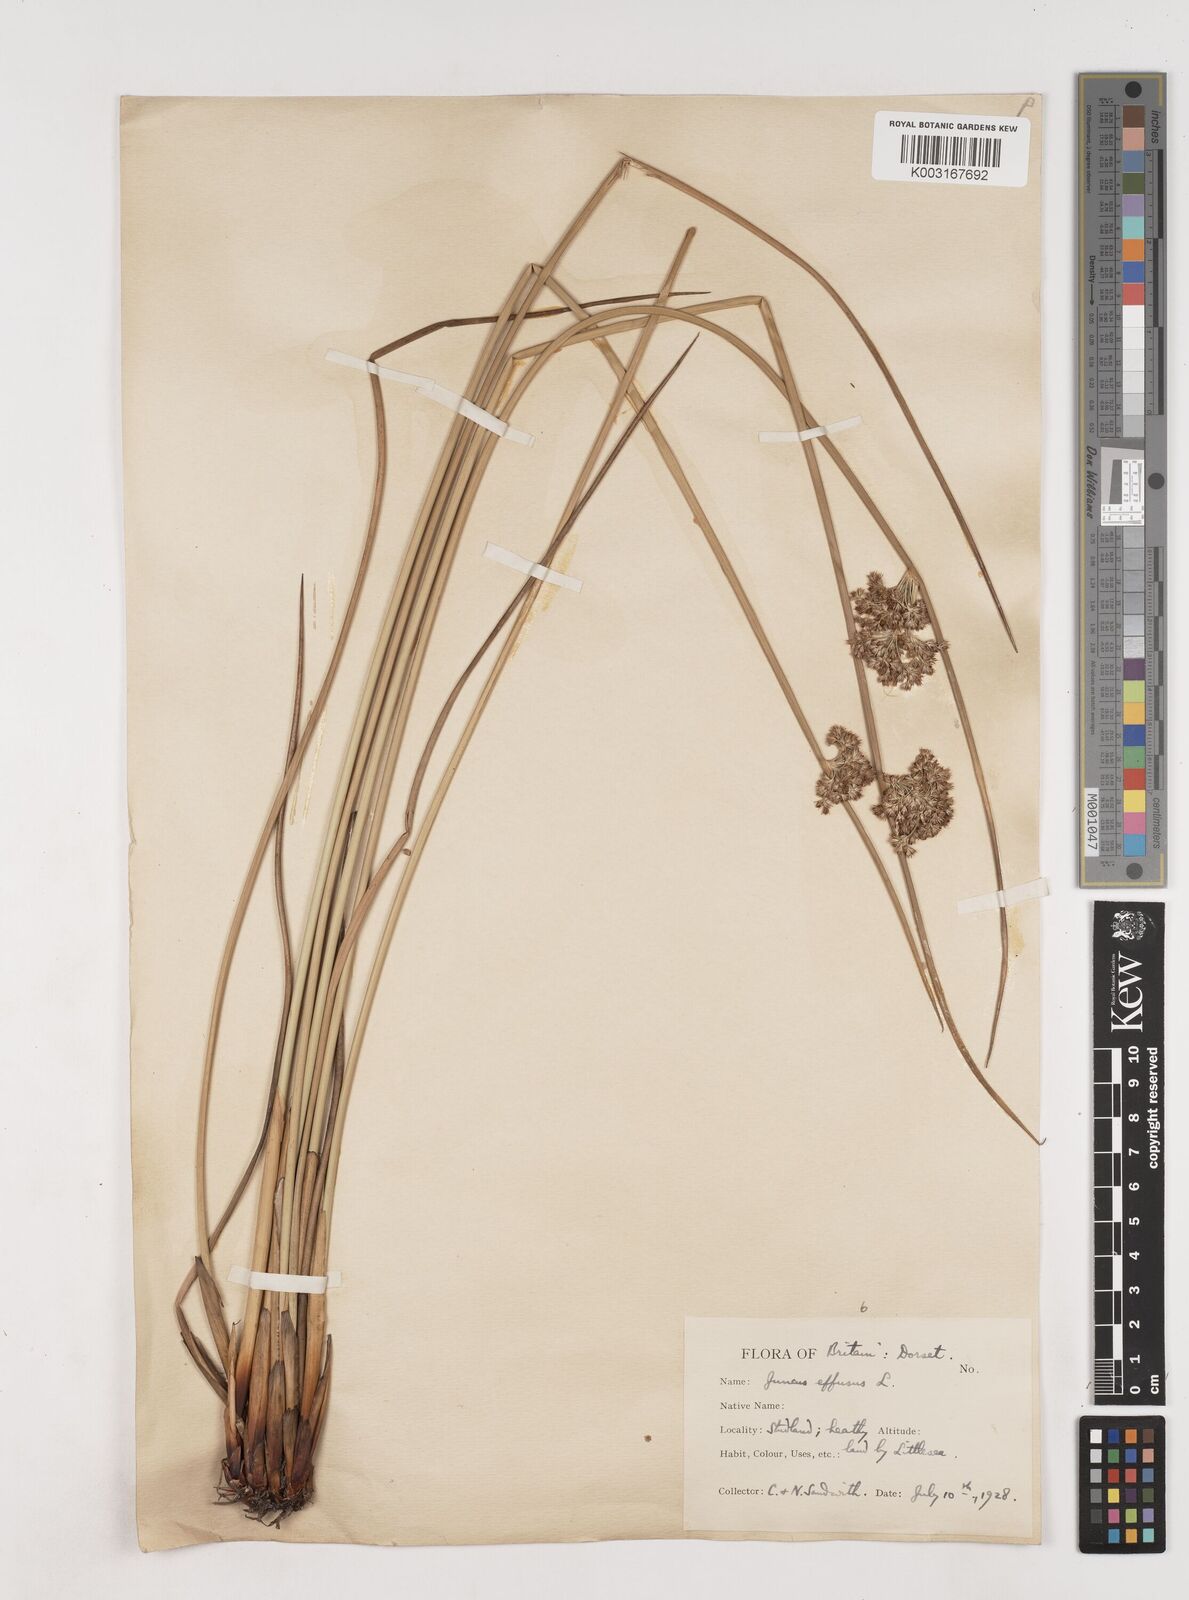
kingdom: Plantae
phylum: Tracheophyta
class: Liliopsida
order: Poales
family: Juncaceae
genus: Juncus
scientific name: Juncus effusus
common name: Soft rush
